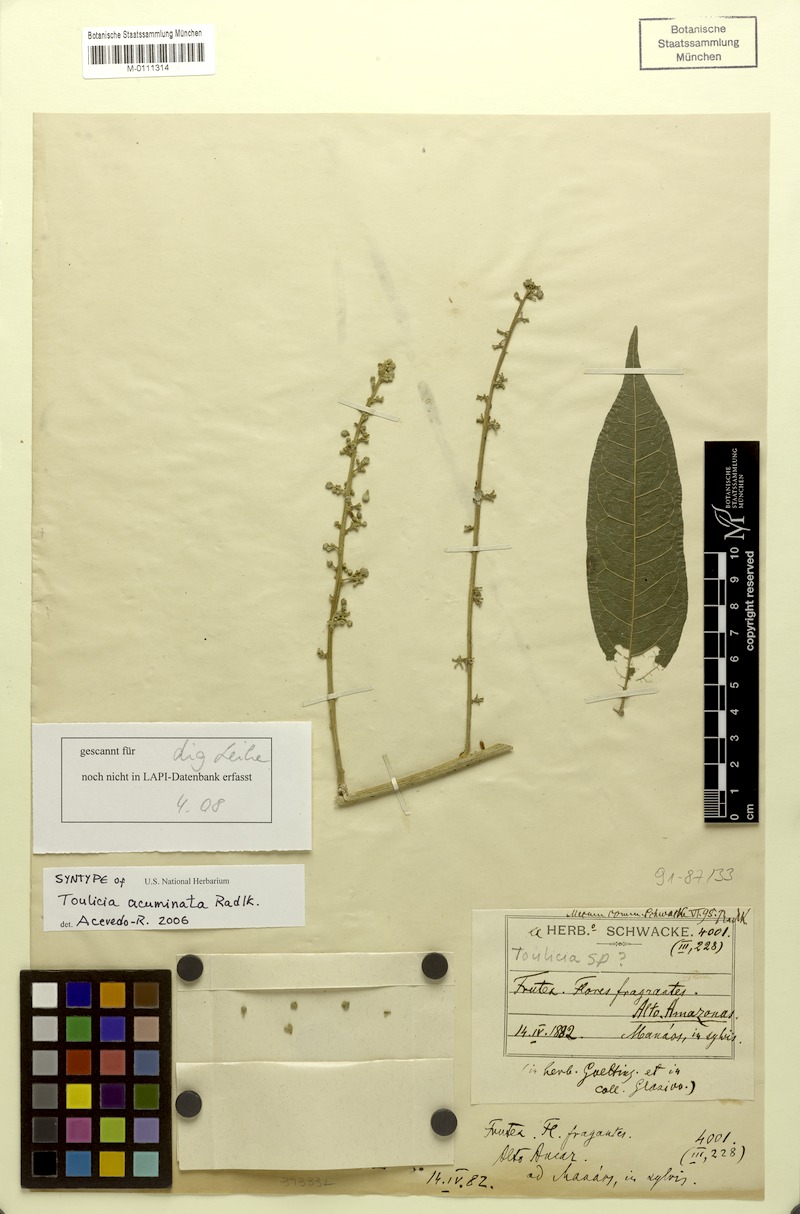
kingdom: Plantae
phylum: Tracheophyta
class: Magnoliopsida
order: Sapindales
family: Sapindaceae
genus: Porocystis
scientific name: Porocystis acuminata
